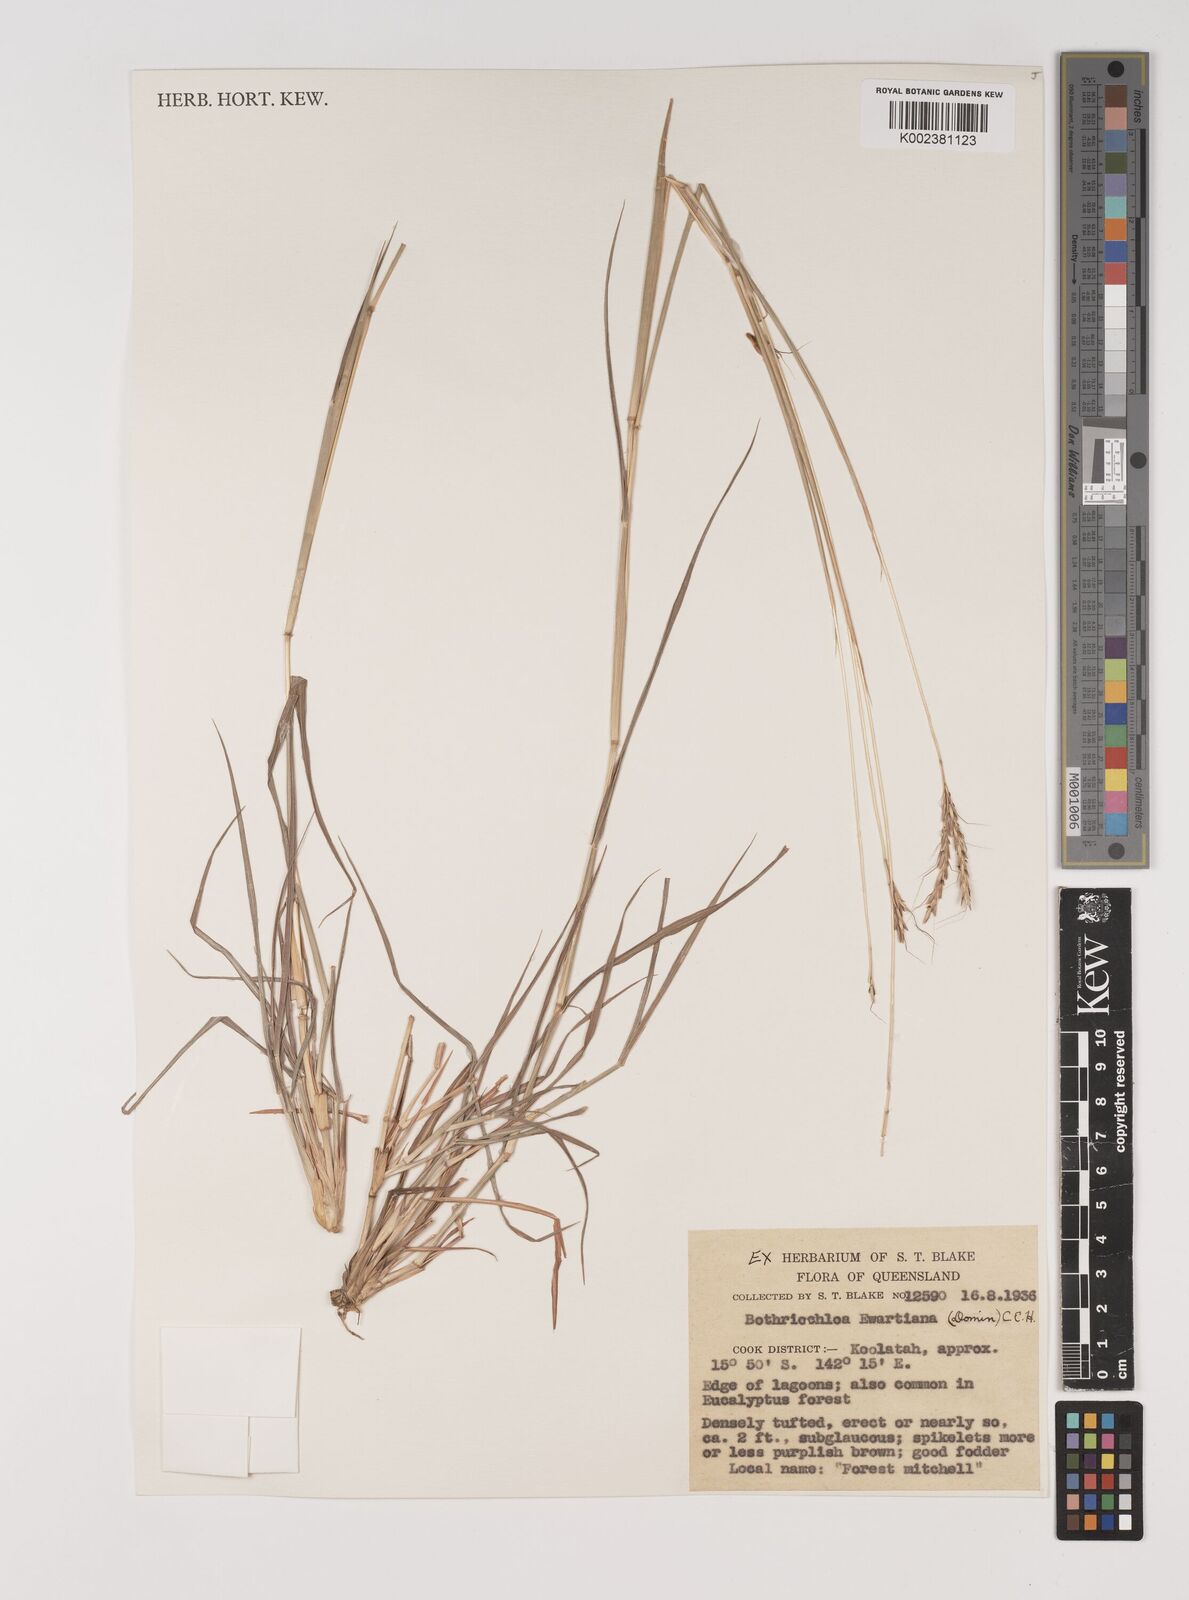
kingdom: Plantae
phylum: Tracheophyta
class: Liliopsida
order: Poales
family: Poaceae
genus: Bothriochloa
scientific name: Bothriochloa ewartiana
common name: Desert-bluegrass
